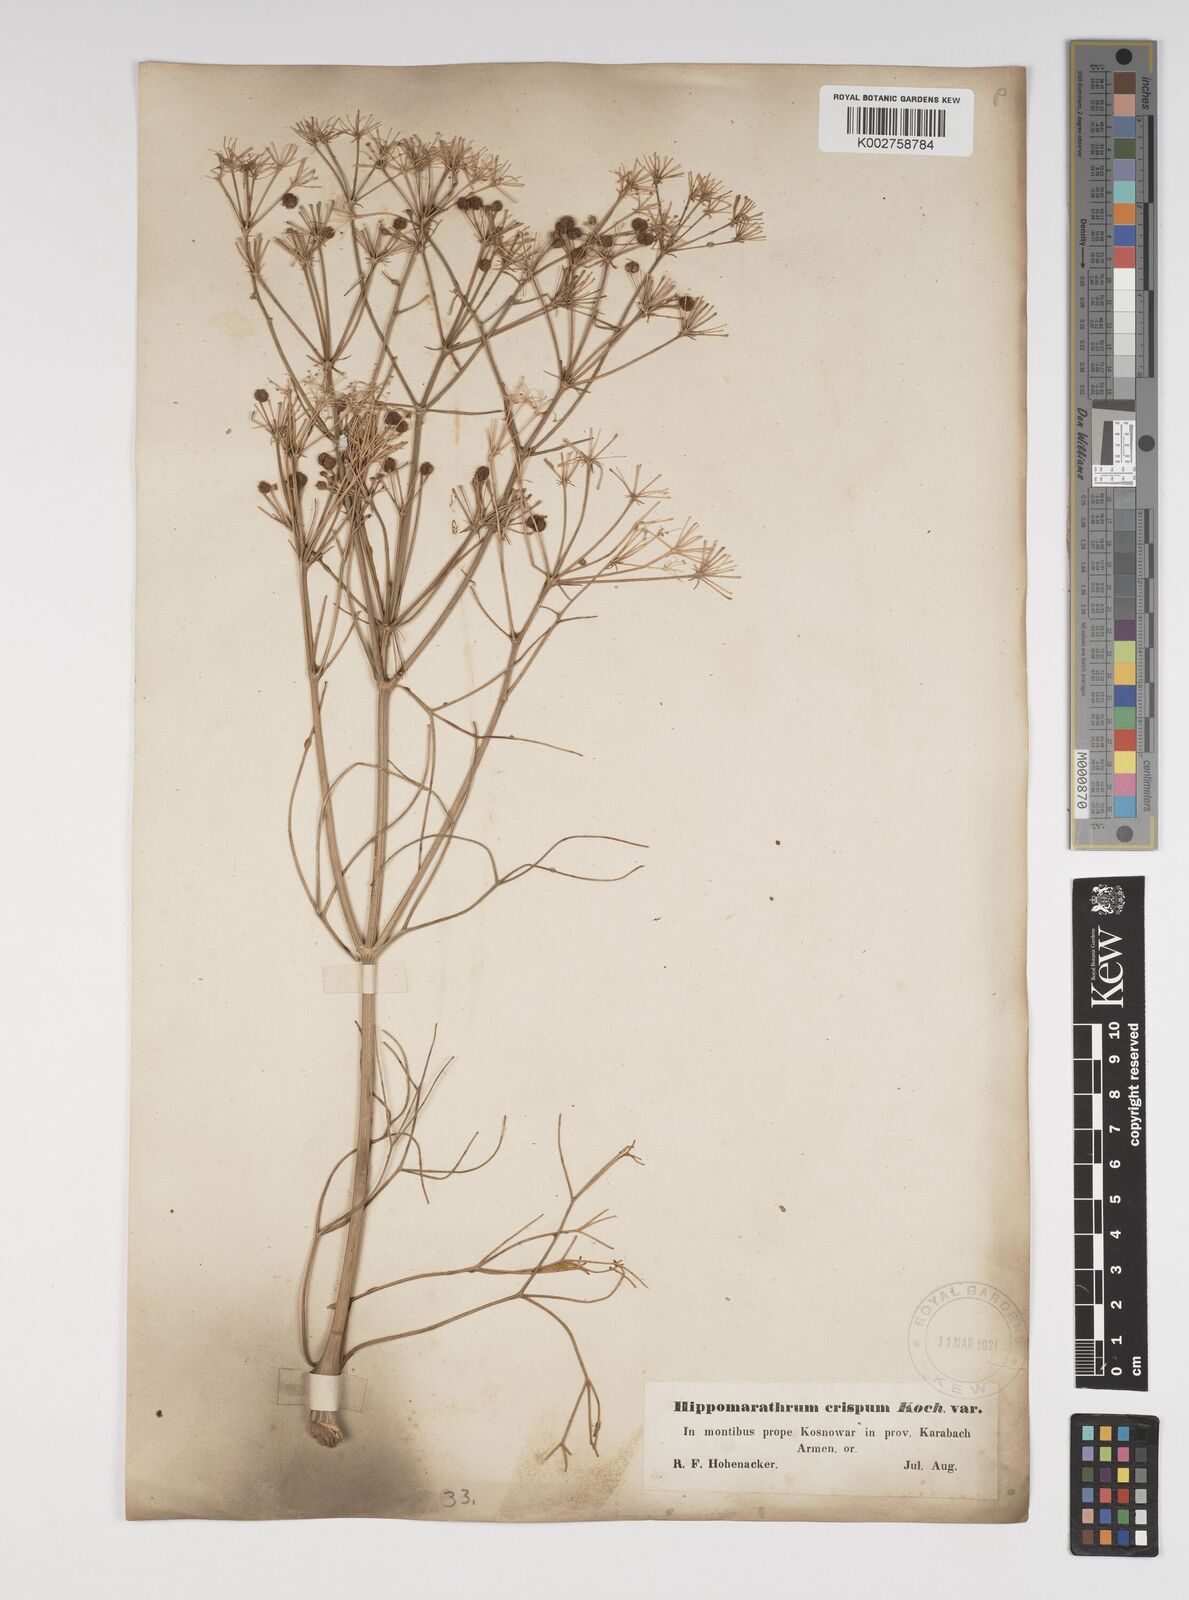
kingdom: Plantae
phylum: Tracheophyta
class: Magnoliopsida
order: Apiales
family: Apiaceae
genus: Bilacunaria
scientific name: Bilacunaria microcarpa
